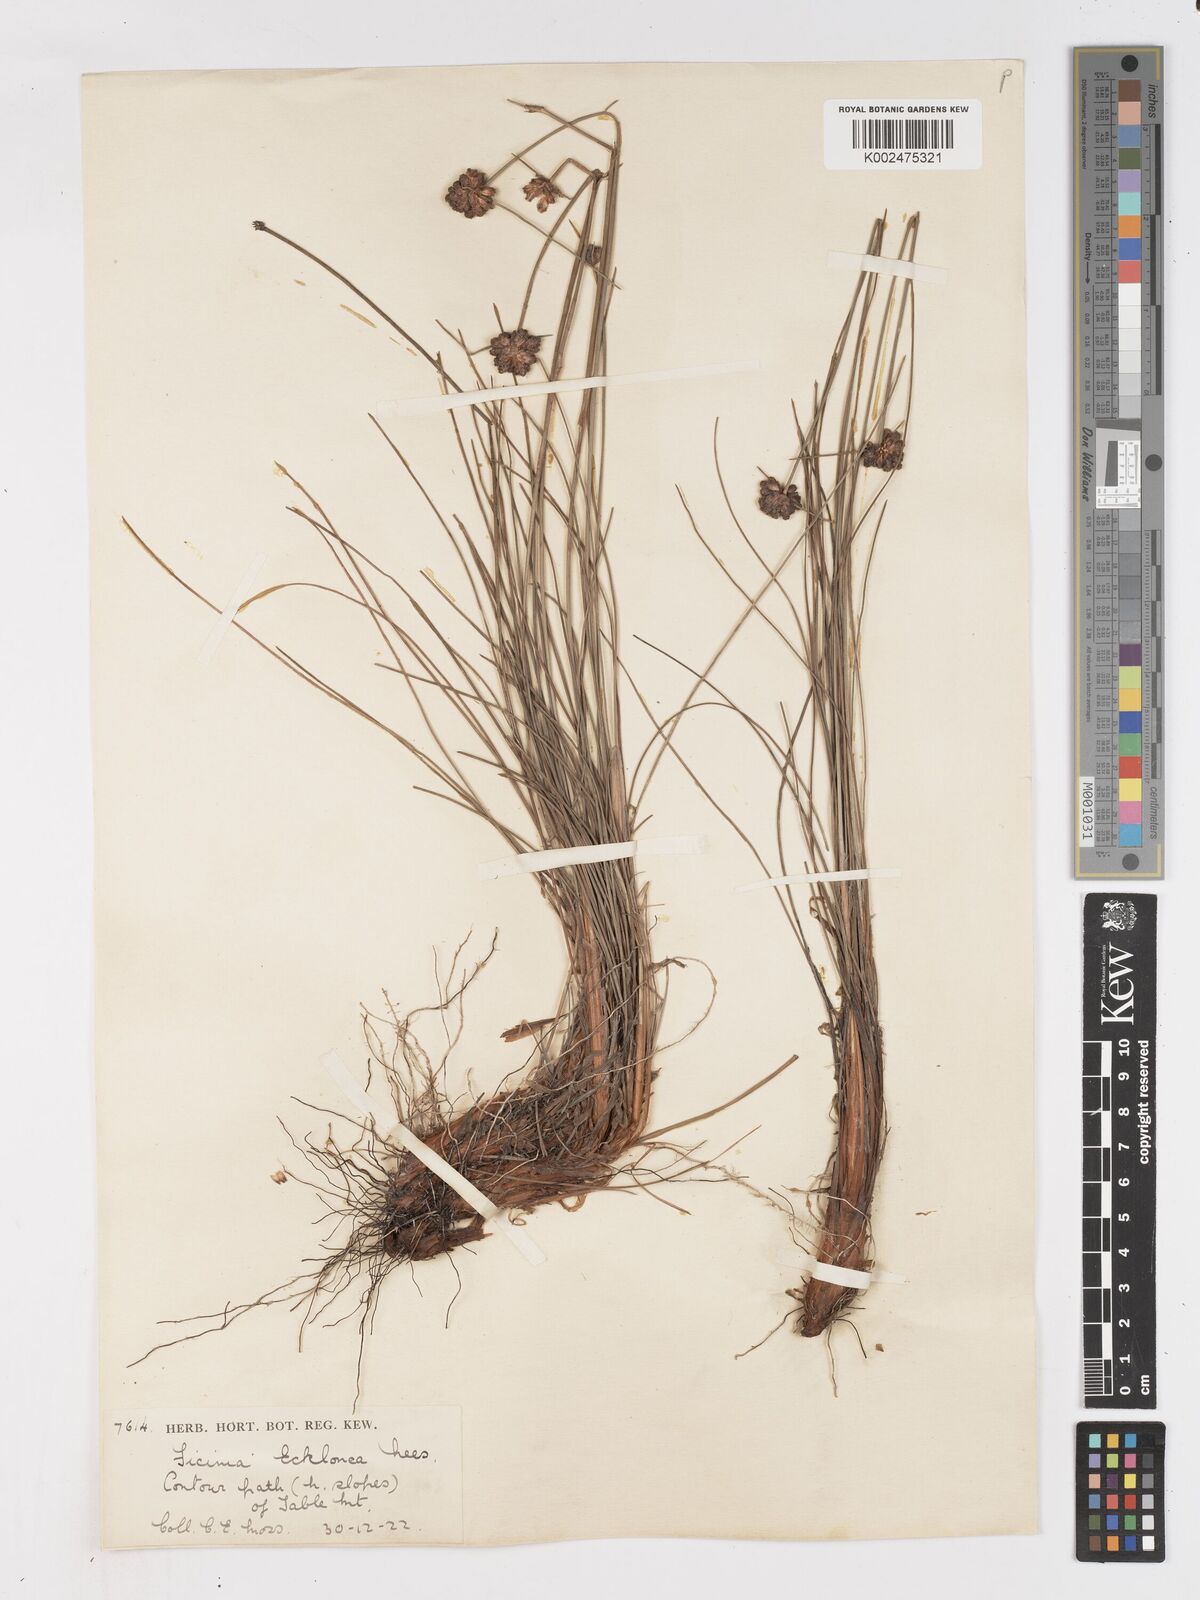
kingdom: Plantae
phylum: Tracheophyta
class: Liliopsida
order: Poales
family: Cyperaceae
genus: Ficinia
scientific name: Ficinia ecklonea
